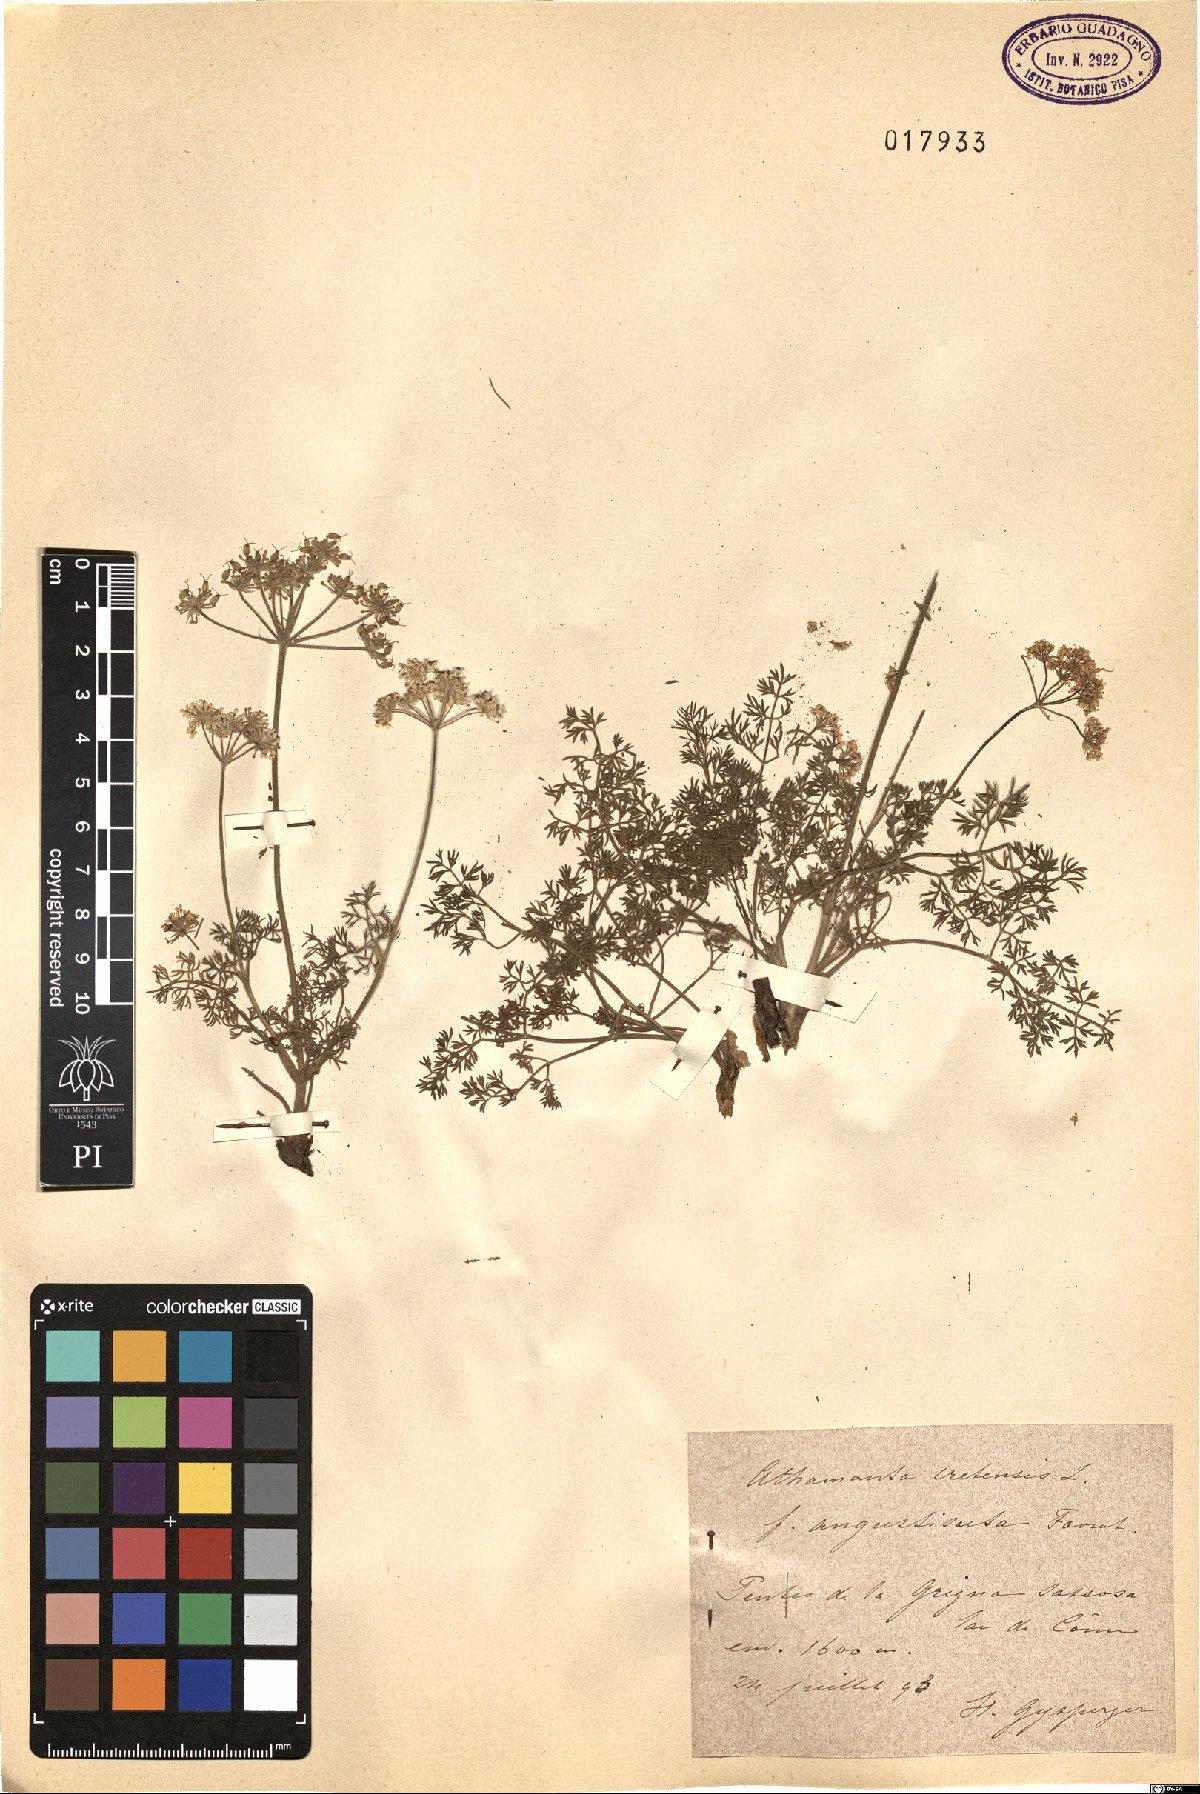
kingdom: Plantae
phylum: Tracheophyta
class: Magnoliopsida
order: Apiales
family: Apiaceae
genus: Athamanta
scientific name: Athamanta cretensis
